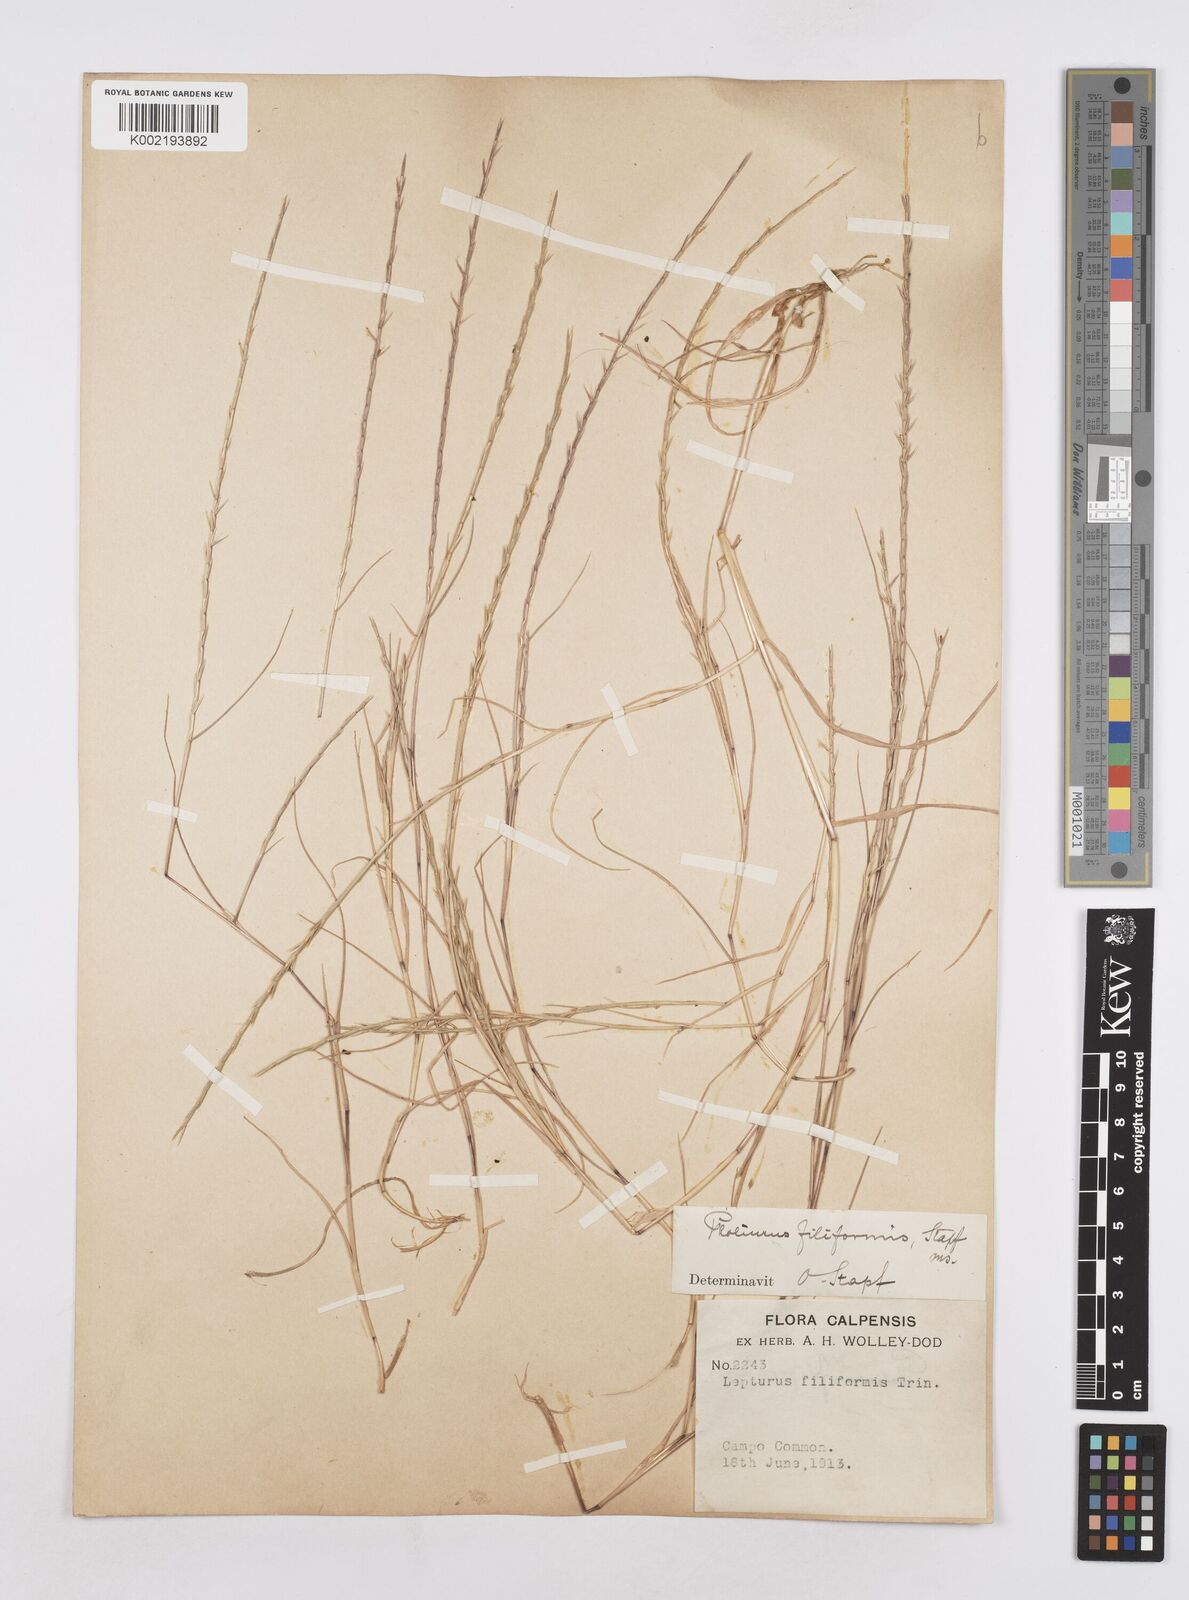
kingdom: Plantae
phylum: Tracheophyta
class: Liliopsida
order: Poales
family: Poaceae
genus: Parapholis
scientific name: Parapholis pycnantha
